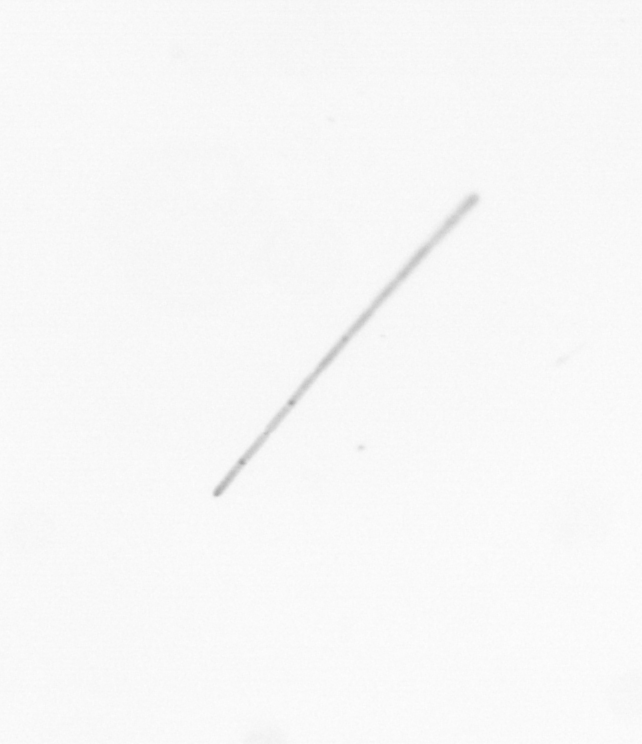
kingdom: Chromista
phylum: Ochrophyta
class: Bacillariophyceae
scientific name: Bacillariophyceae
